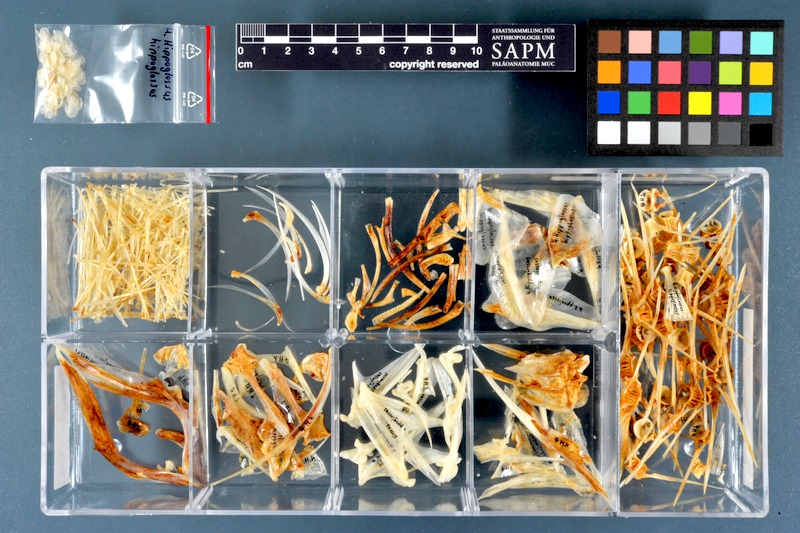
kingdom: Animalia
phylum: Chordata
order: Pleuronectiformes
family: Pleuronectidae
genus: Hippoglossus
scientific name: Hippoglossus hippoglossus
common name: Atlantic halibut
